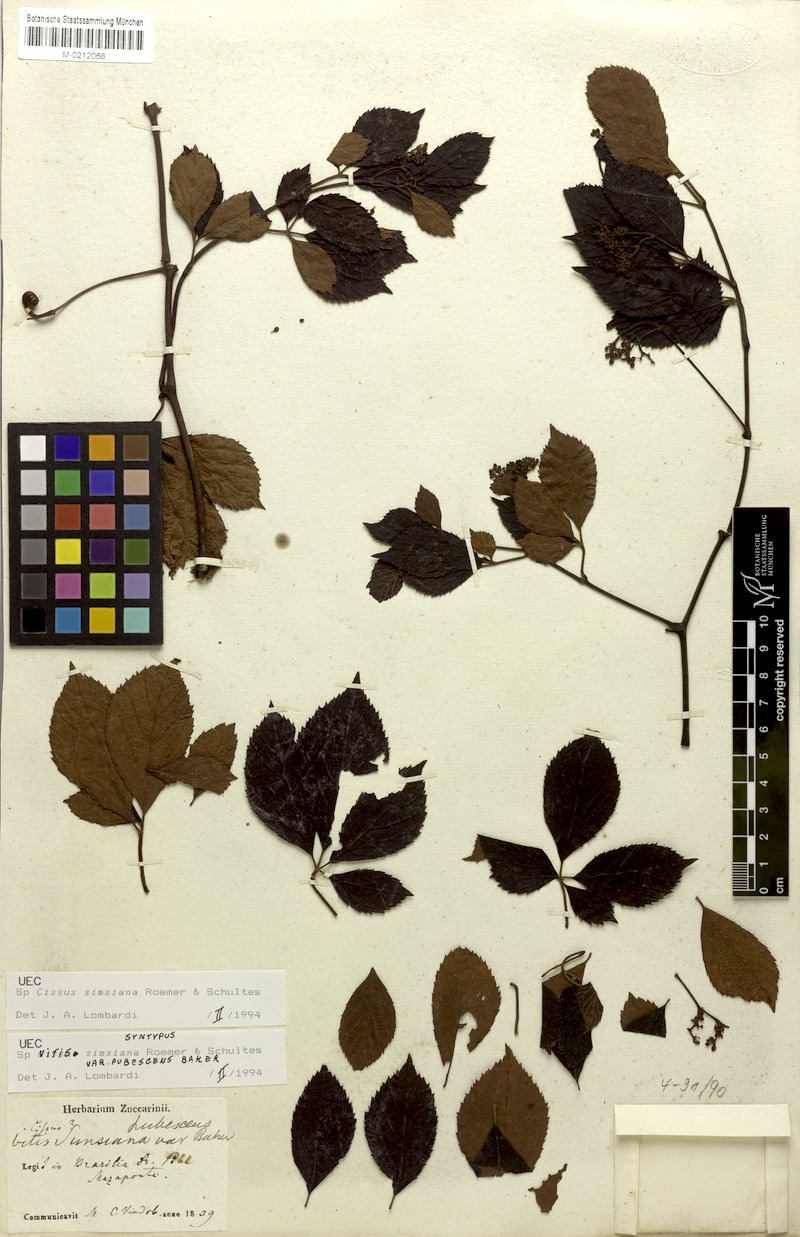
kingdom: Plantae
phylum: Tracheophyta
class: Magnoliopsida
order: Vitales
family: Vitaceae
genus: Clematicissus
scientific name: Clematicissus simsiana
